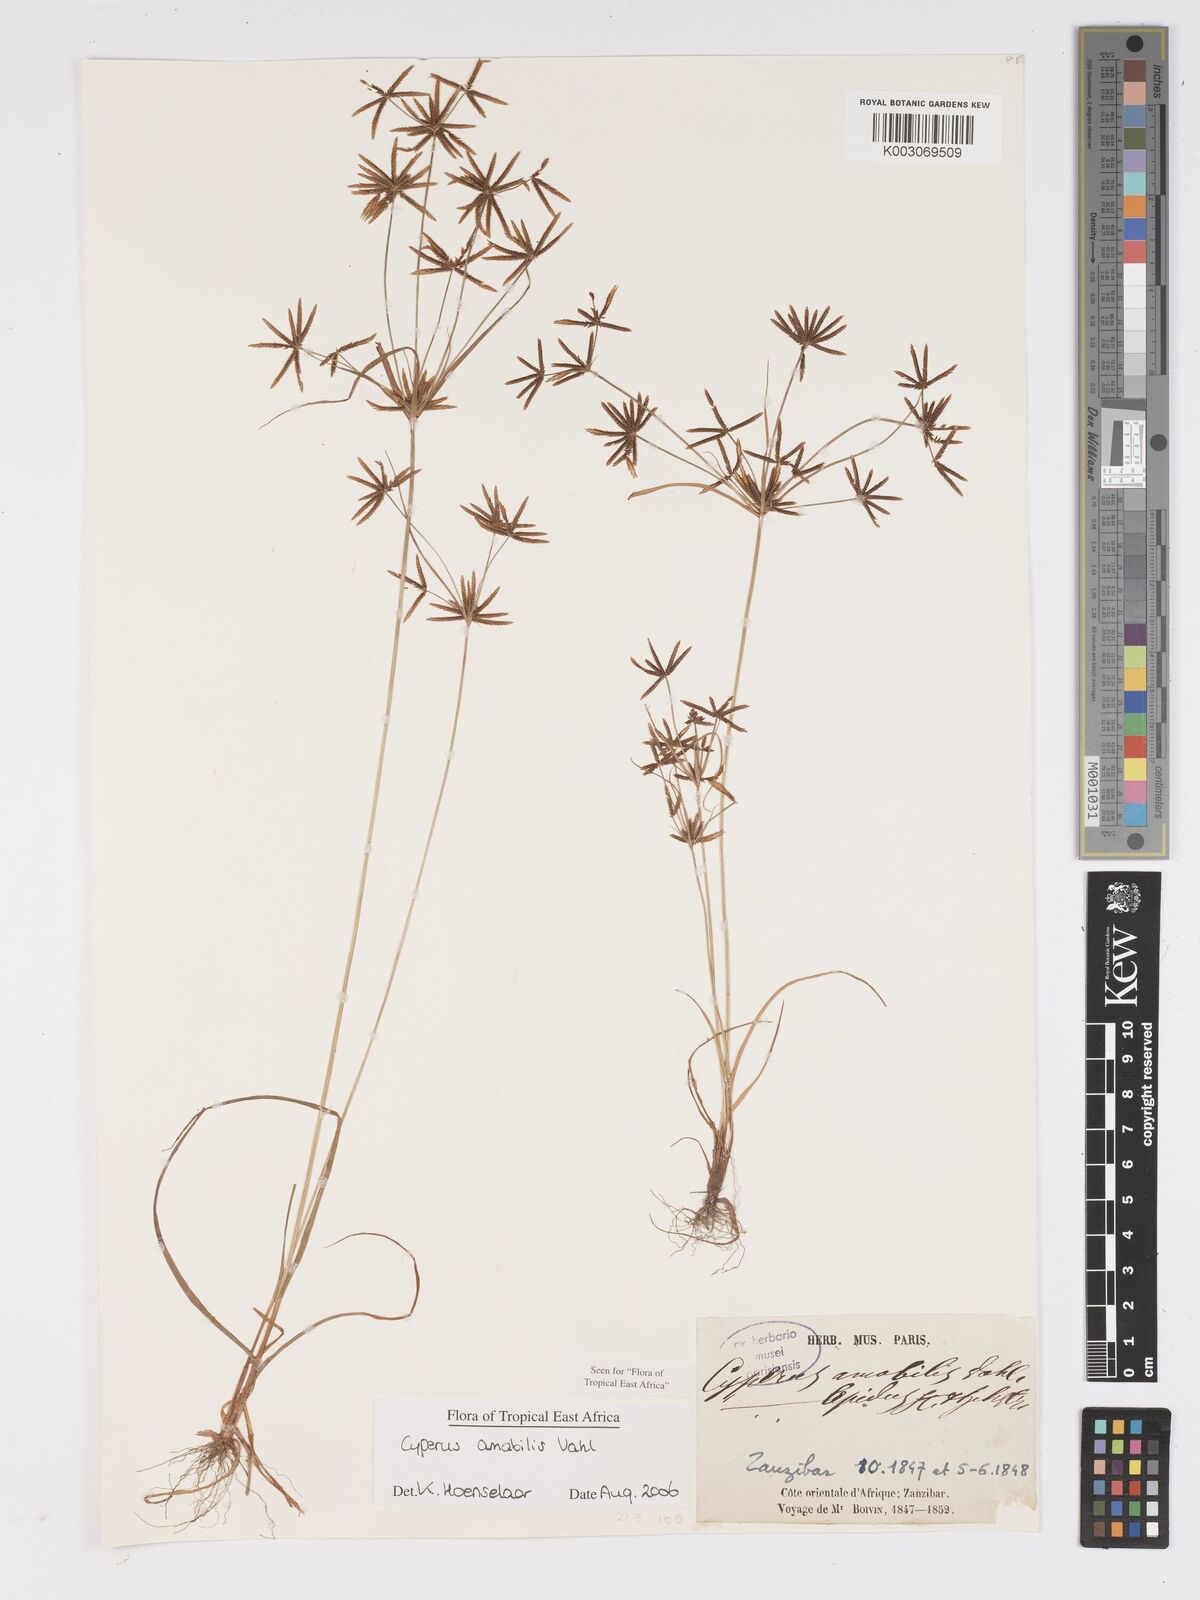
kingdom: Plantae
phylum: Tracheophyta
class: Liliopsida
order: Poales
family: Cyperaceae
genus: Cyperus
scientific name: Cyperus amabilis
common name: Foothill flat sedge
